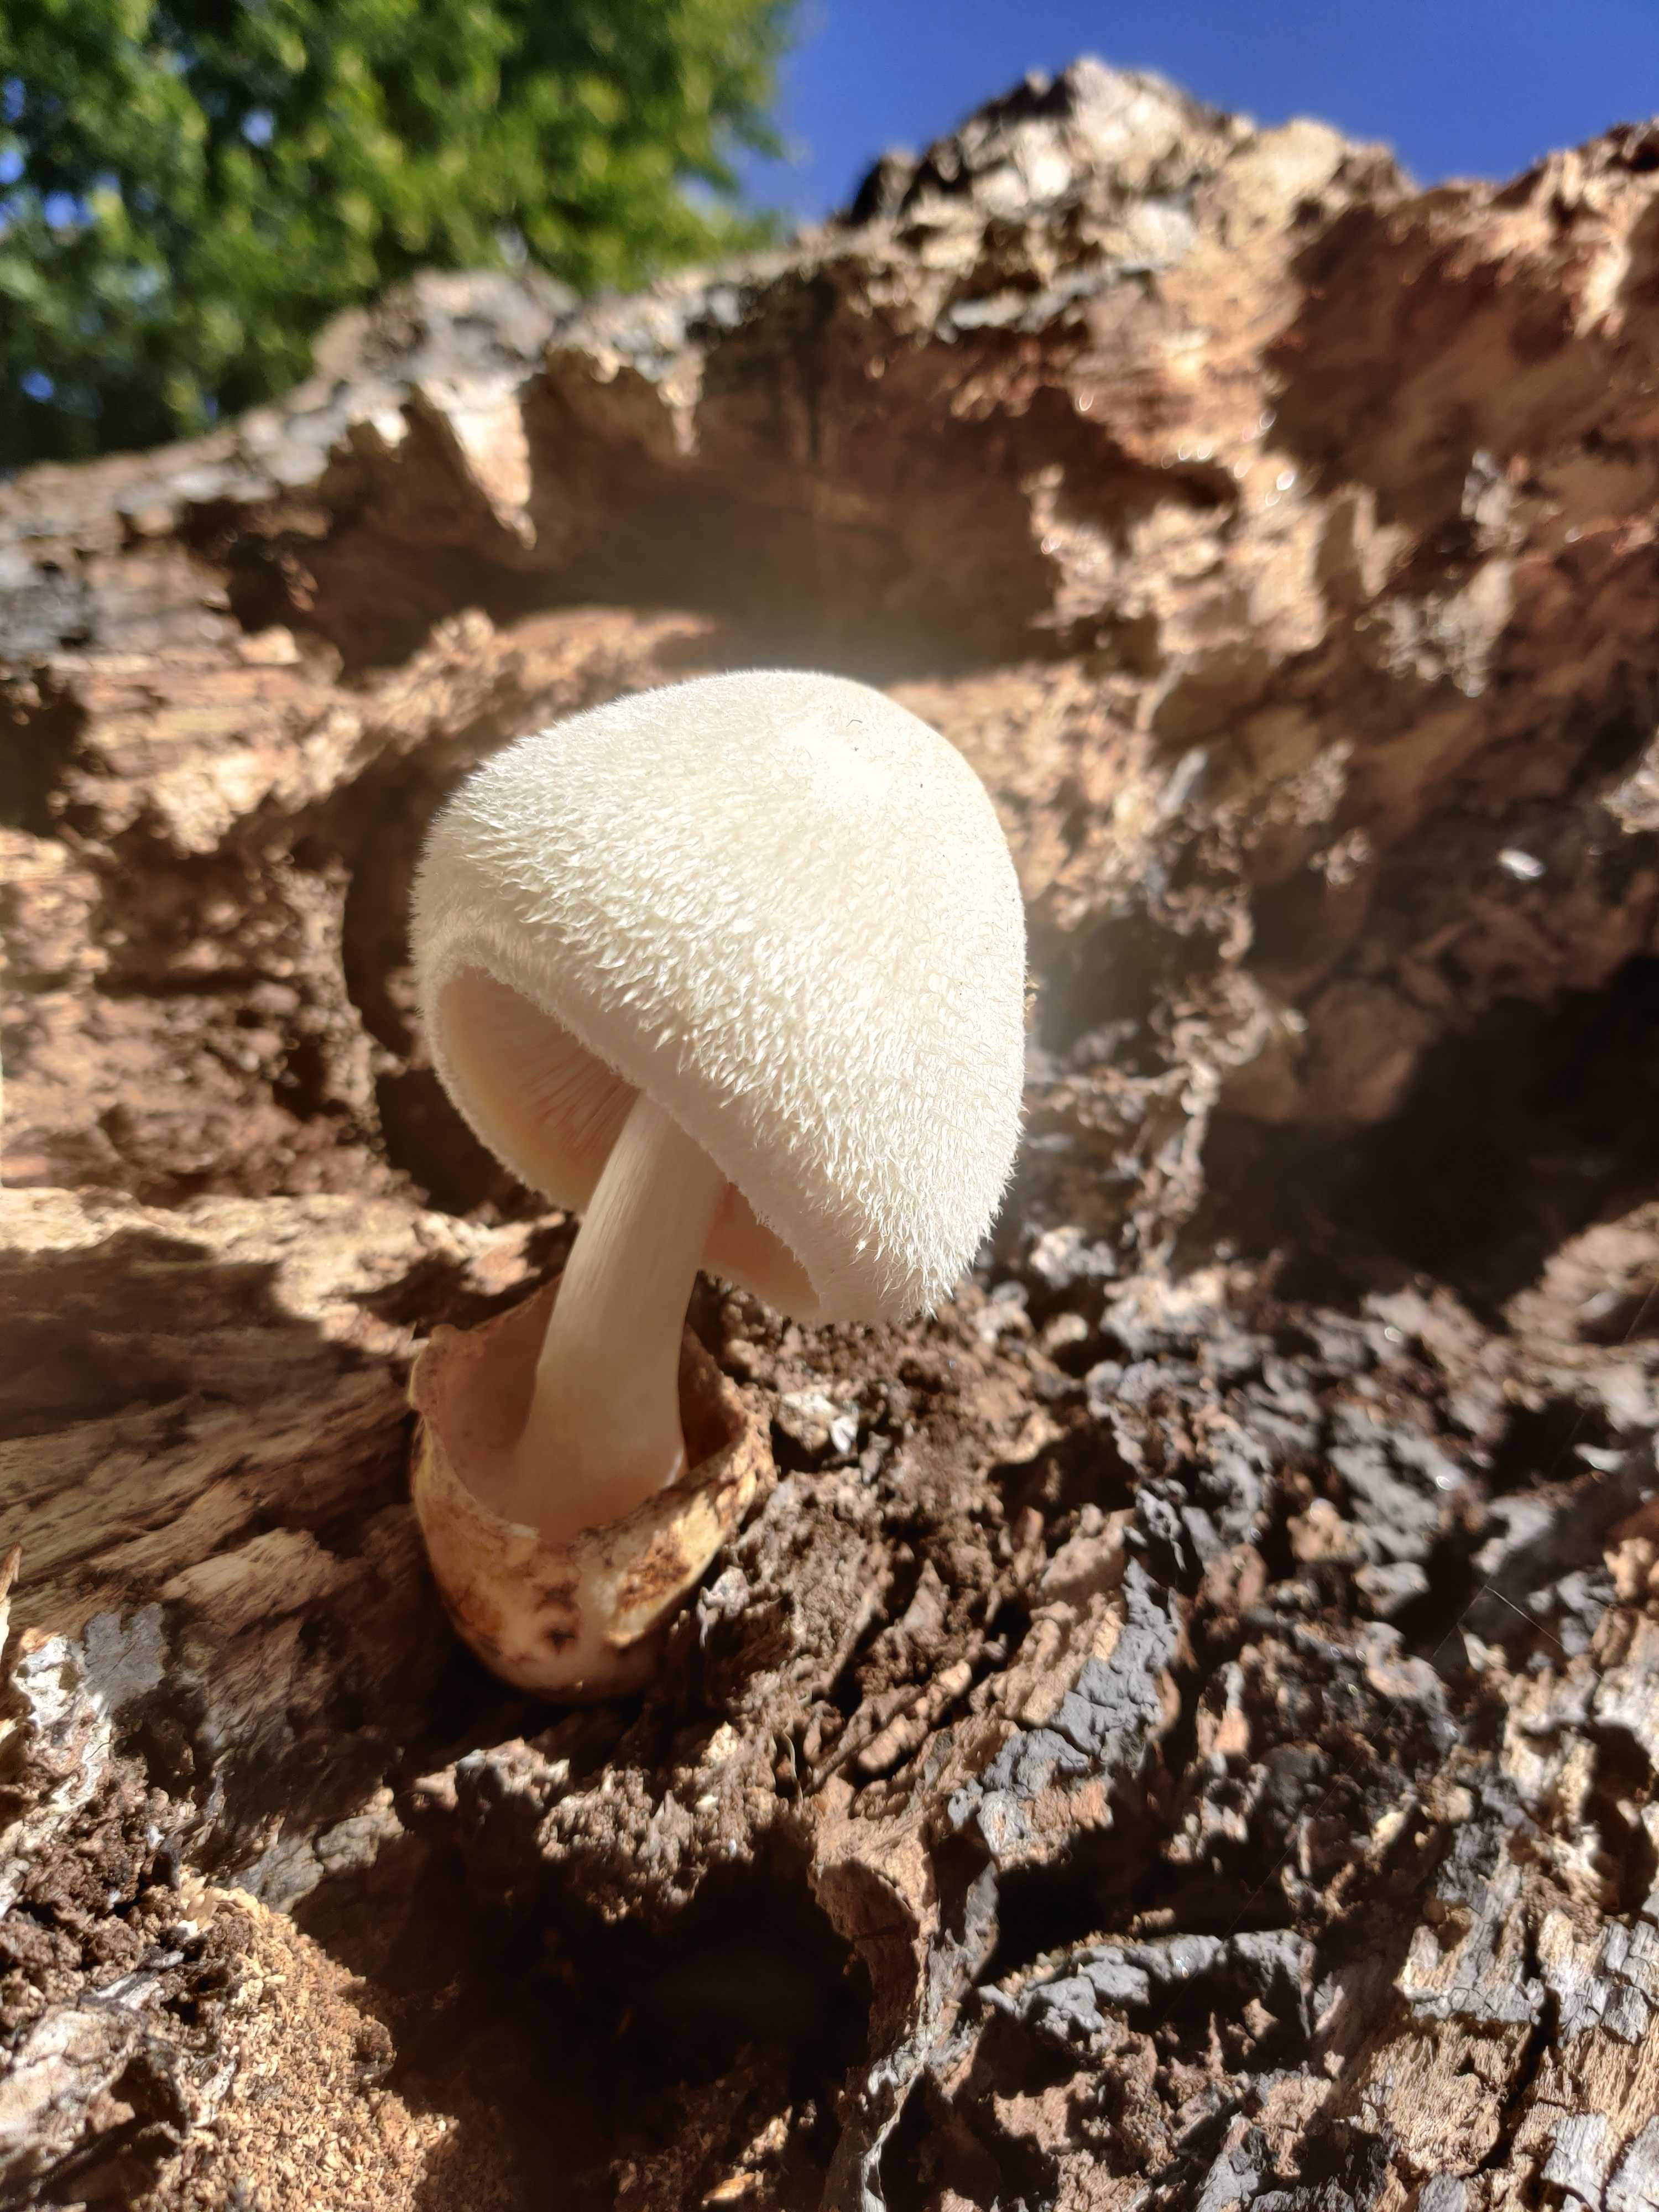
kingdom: Fungi
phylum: Basidiomycota
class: Agaricomycetes
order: Agaricales
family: Pluteaceae
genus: Volvariella
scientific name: Volvariella bombycina
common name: silkehåret posesvamp
